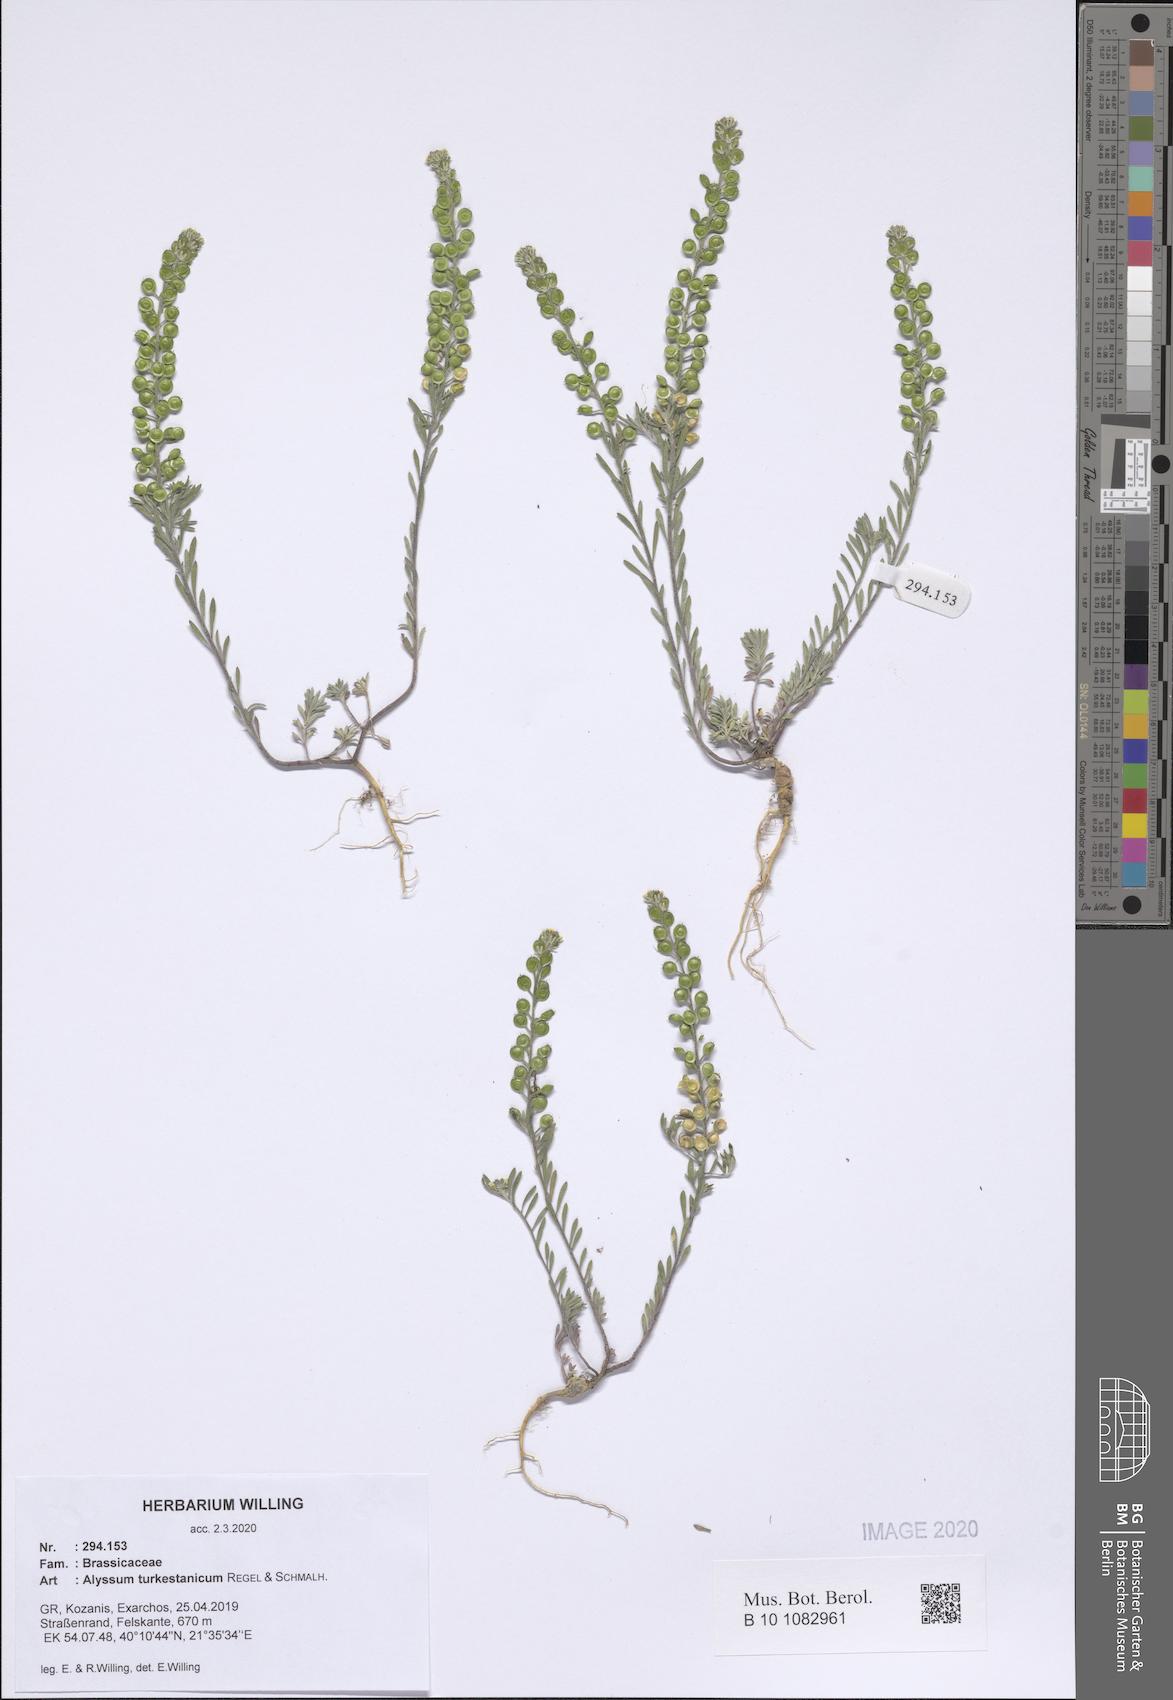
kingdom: Plantae
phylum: Tracheophyta
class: Magnoliopsida
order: Brassicales
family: Brassicaceae
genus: Alyssum
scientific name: Alyssum turkestanicum
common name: Desert alyssum
